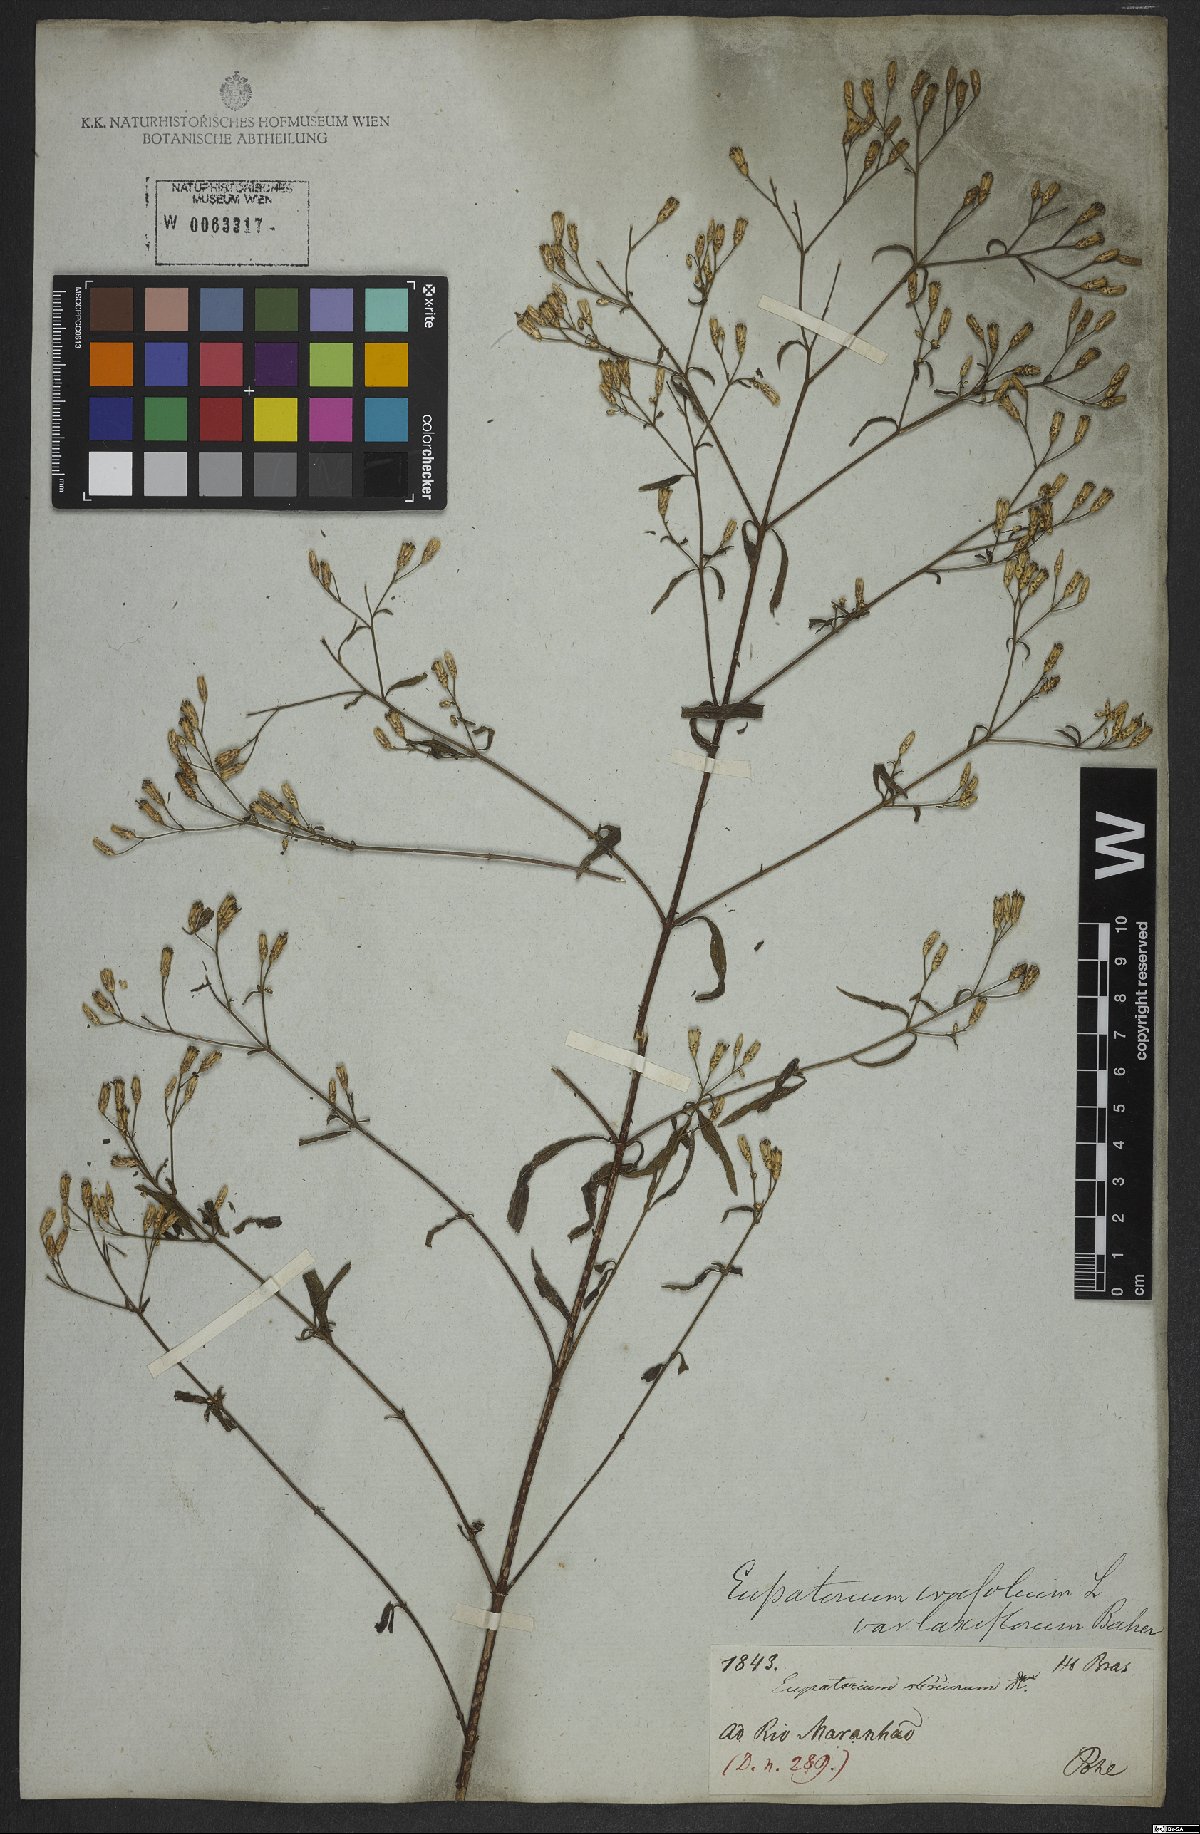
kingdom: Plantae
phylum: Tracheophyta
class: Magnoliopsida
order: Asterales
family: Asteraceae
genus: Chromolaena
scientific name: Chromolaena ivifolia
